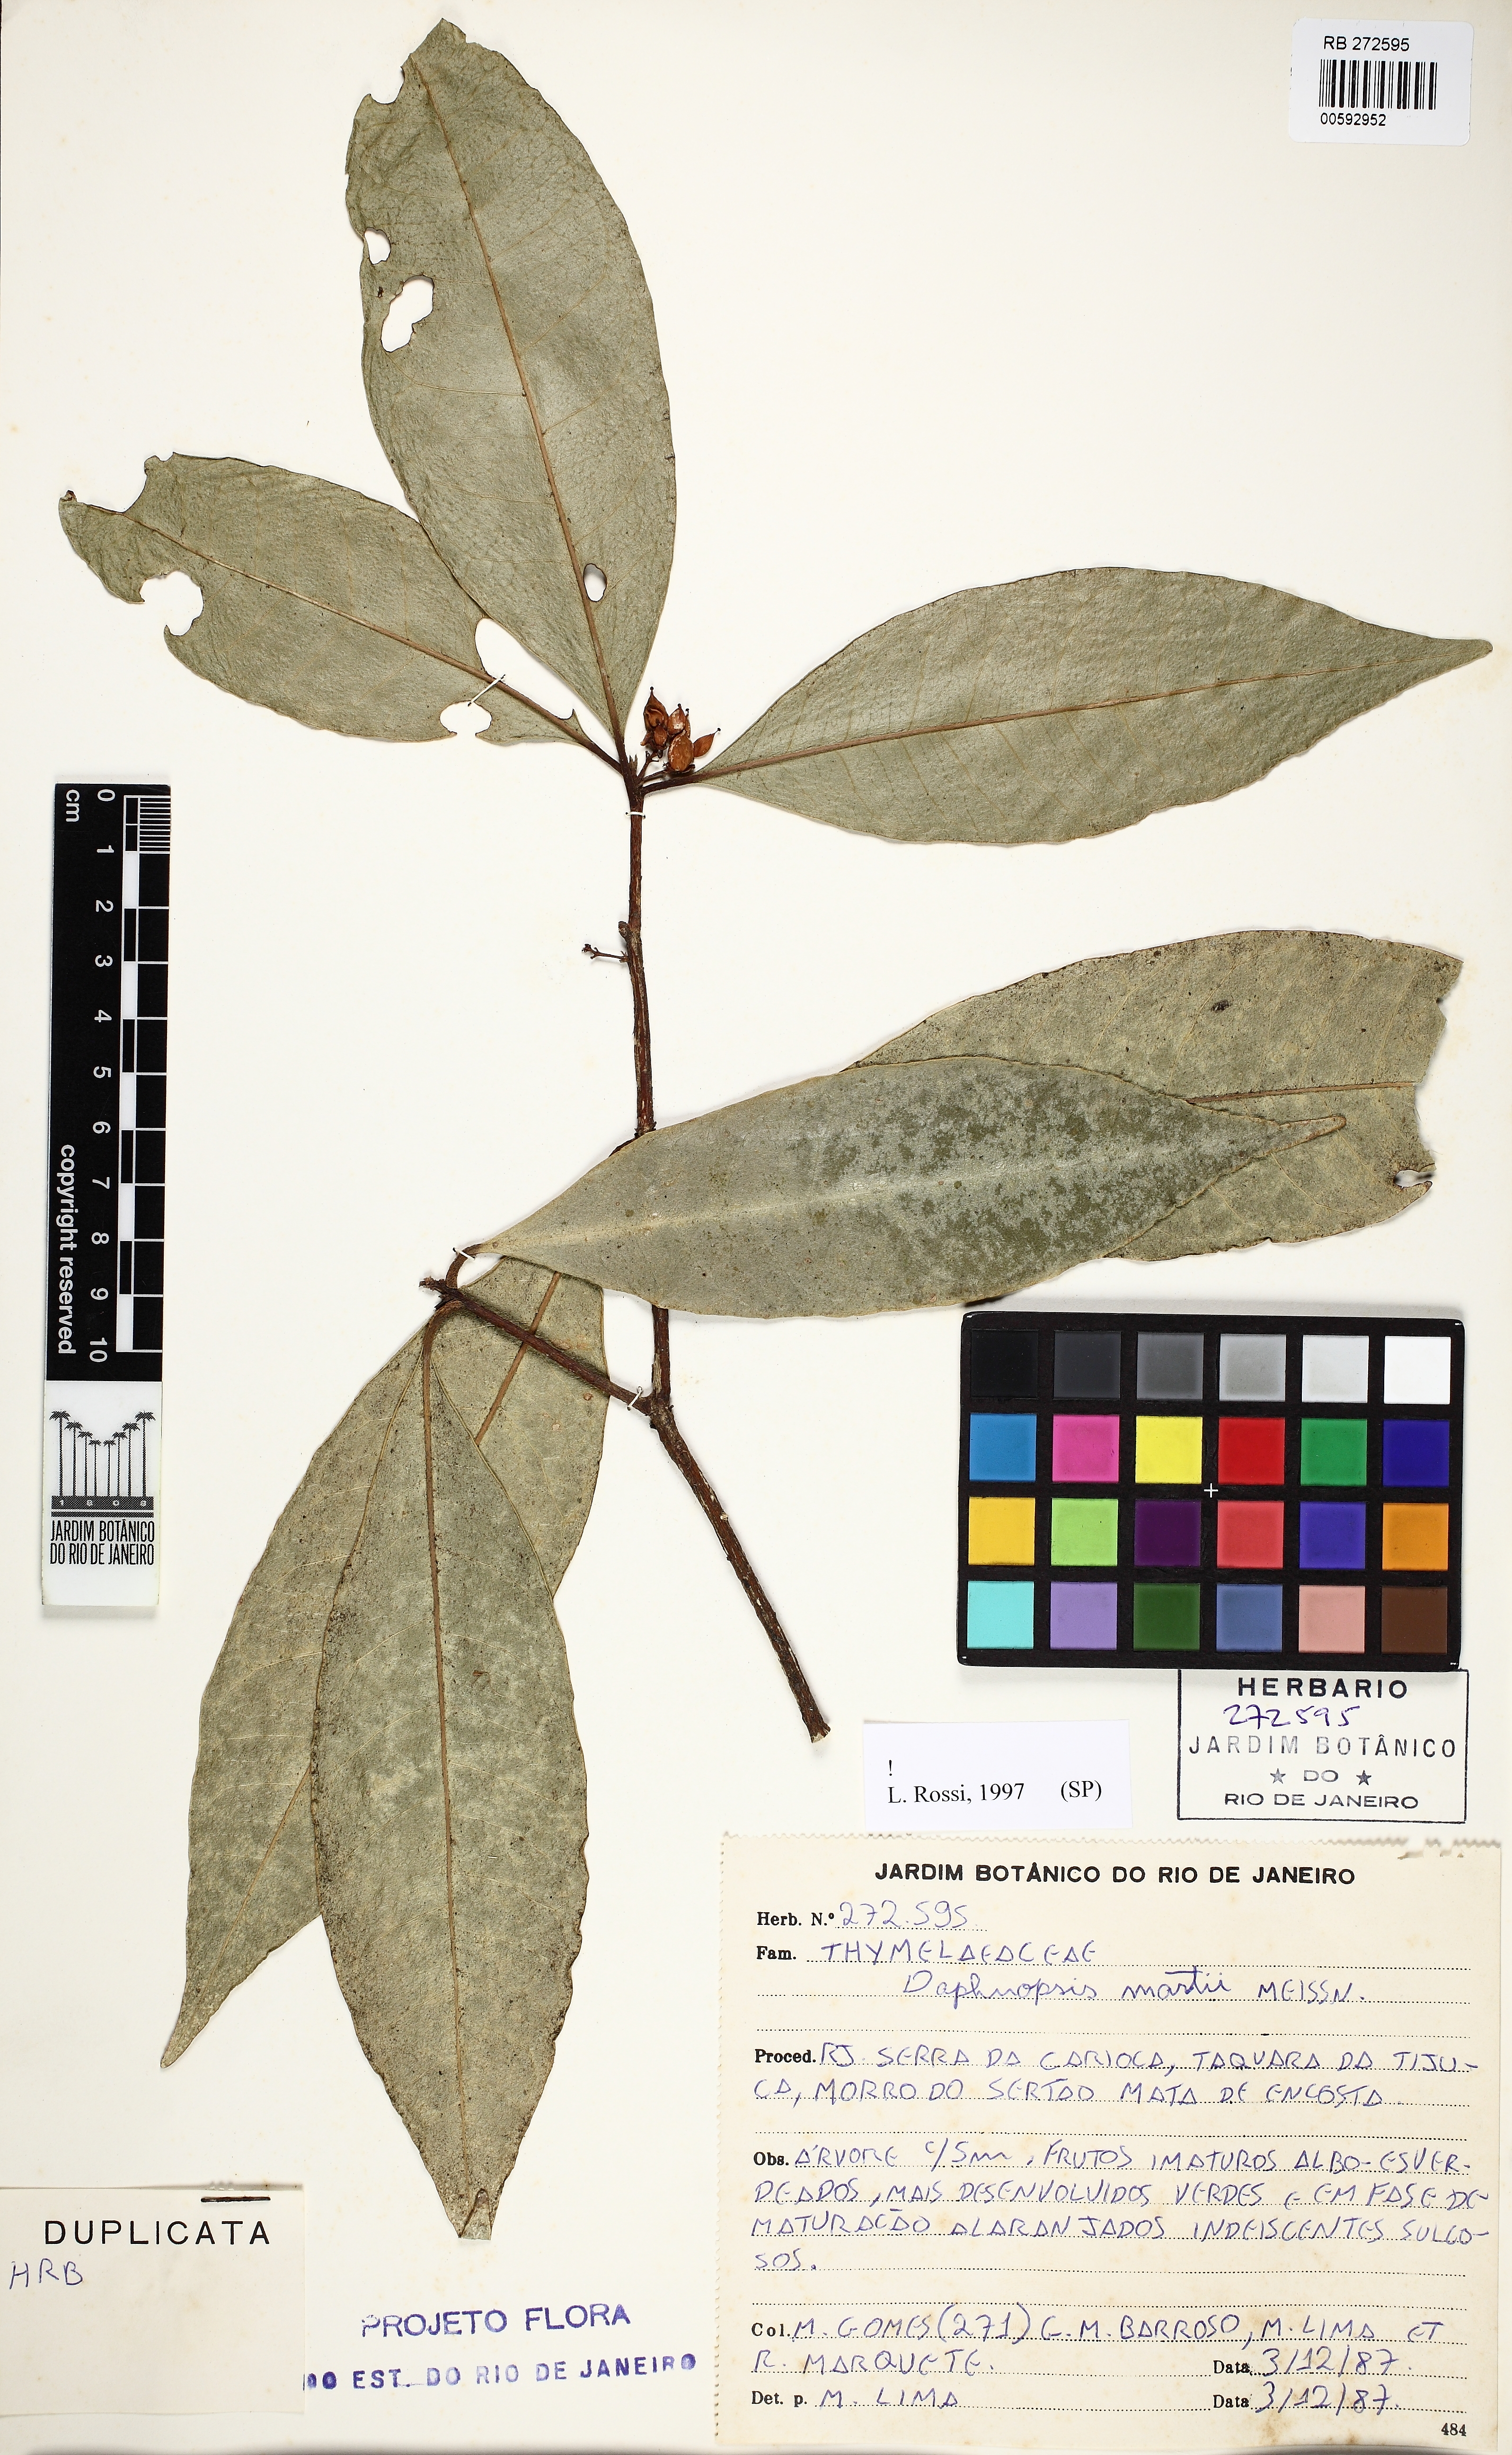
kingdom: Plantae
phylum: Tracheophyta
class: Magnoliopsida
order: Malvales
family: Thymelaeaceae
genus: Daphnopsis
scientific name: Daphnopsis martii
